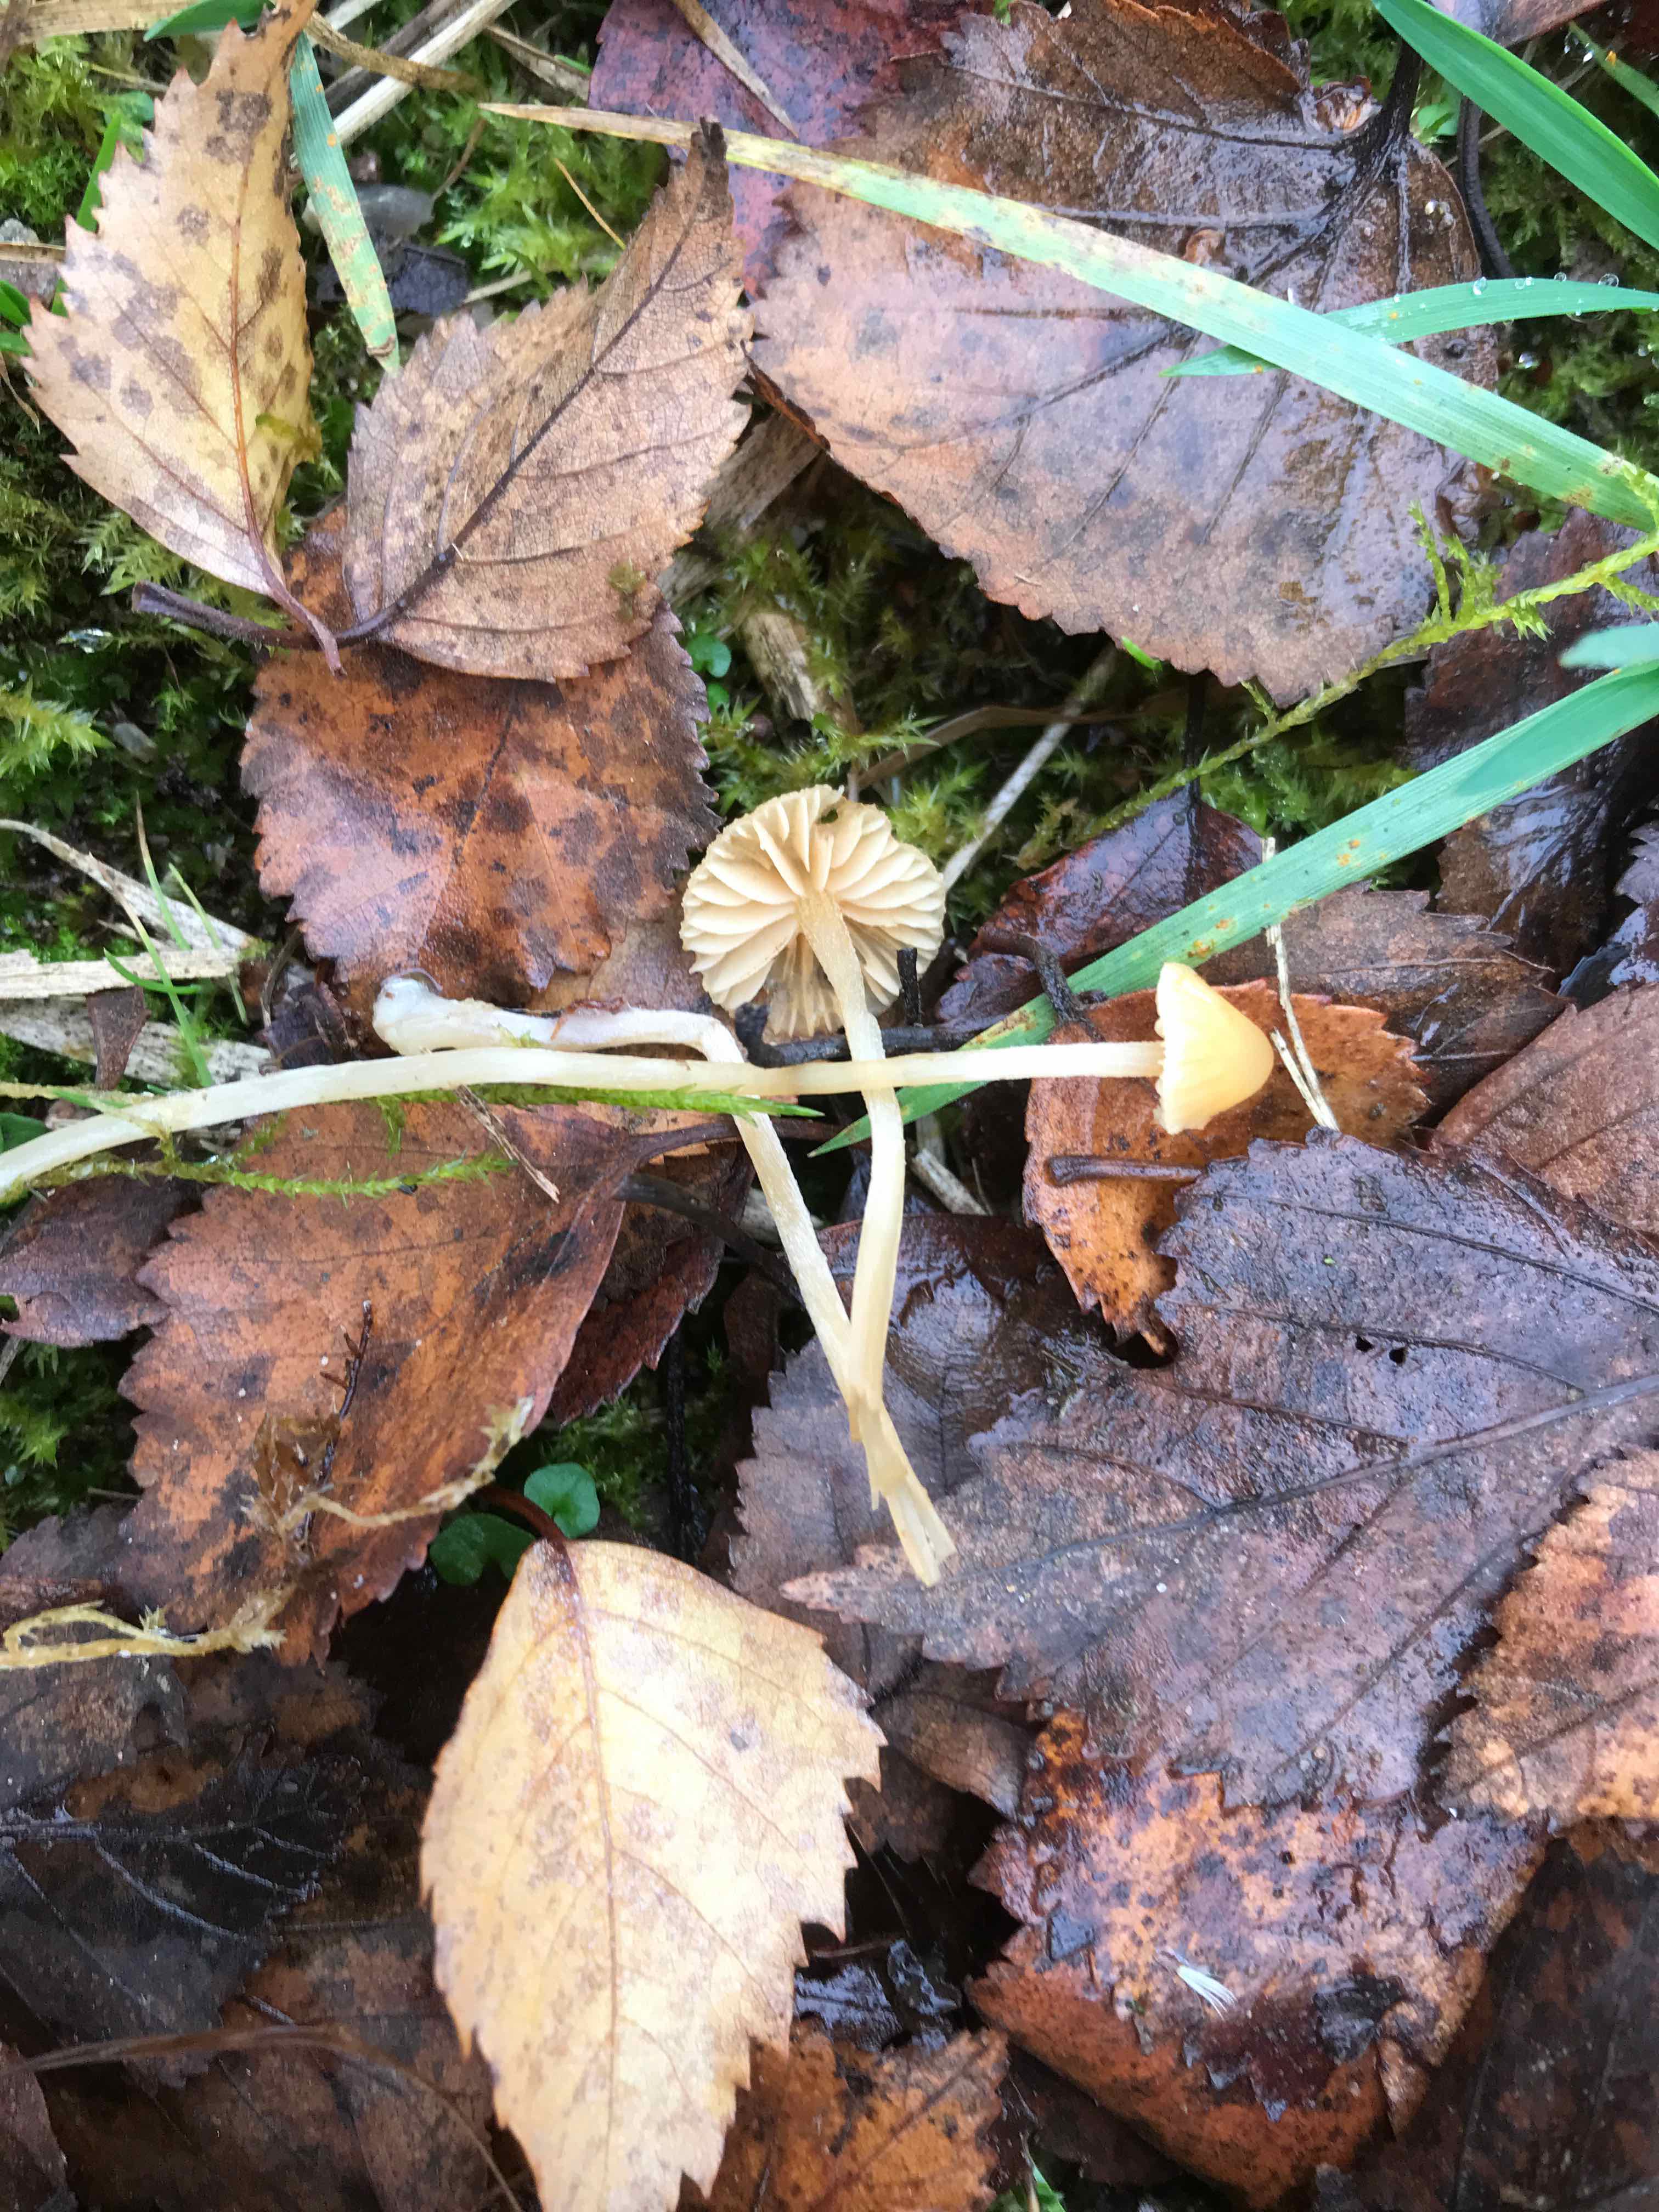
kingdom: Fungi
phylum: Basidiomycota
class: Agaricomycetes
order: Agaricales
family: Hymenogastraceae
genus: Galerina
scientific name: Galerina
